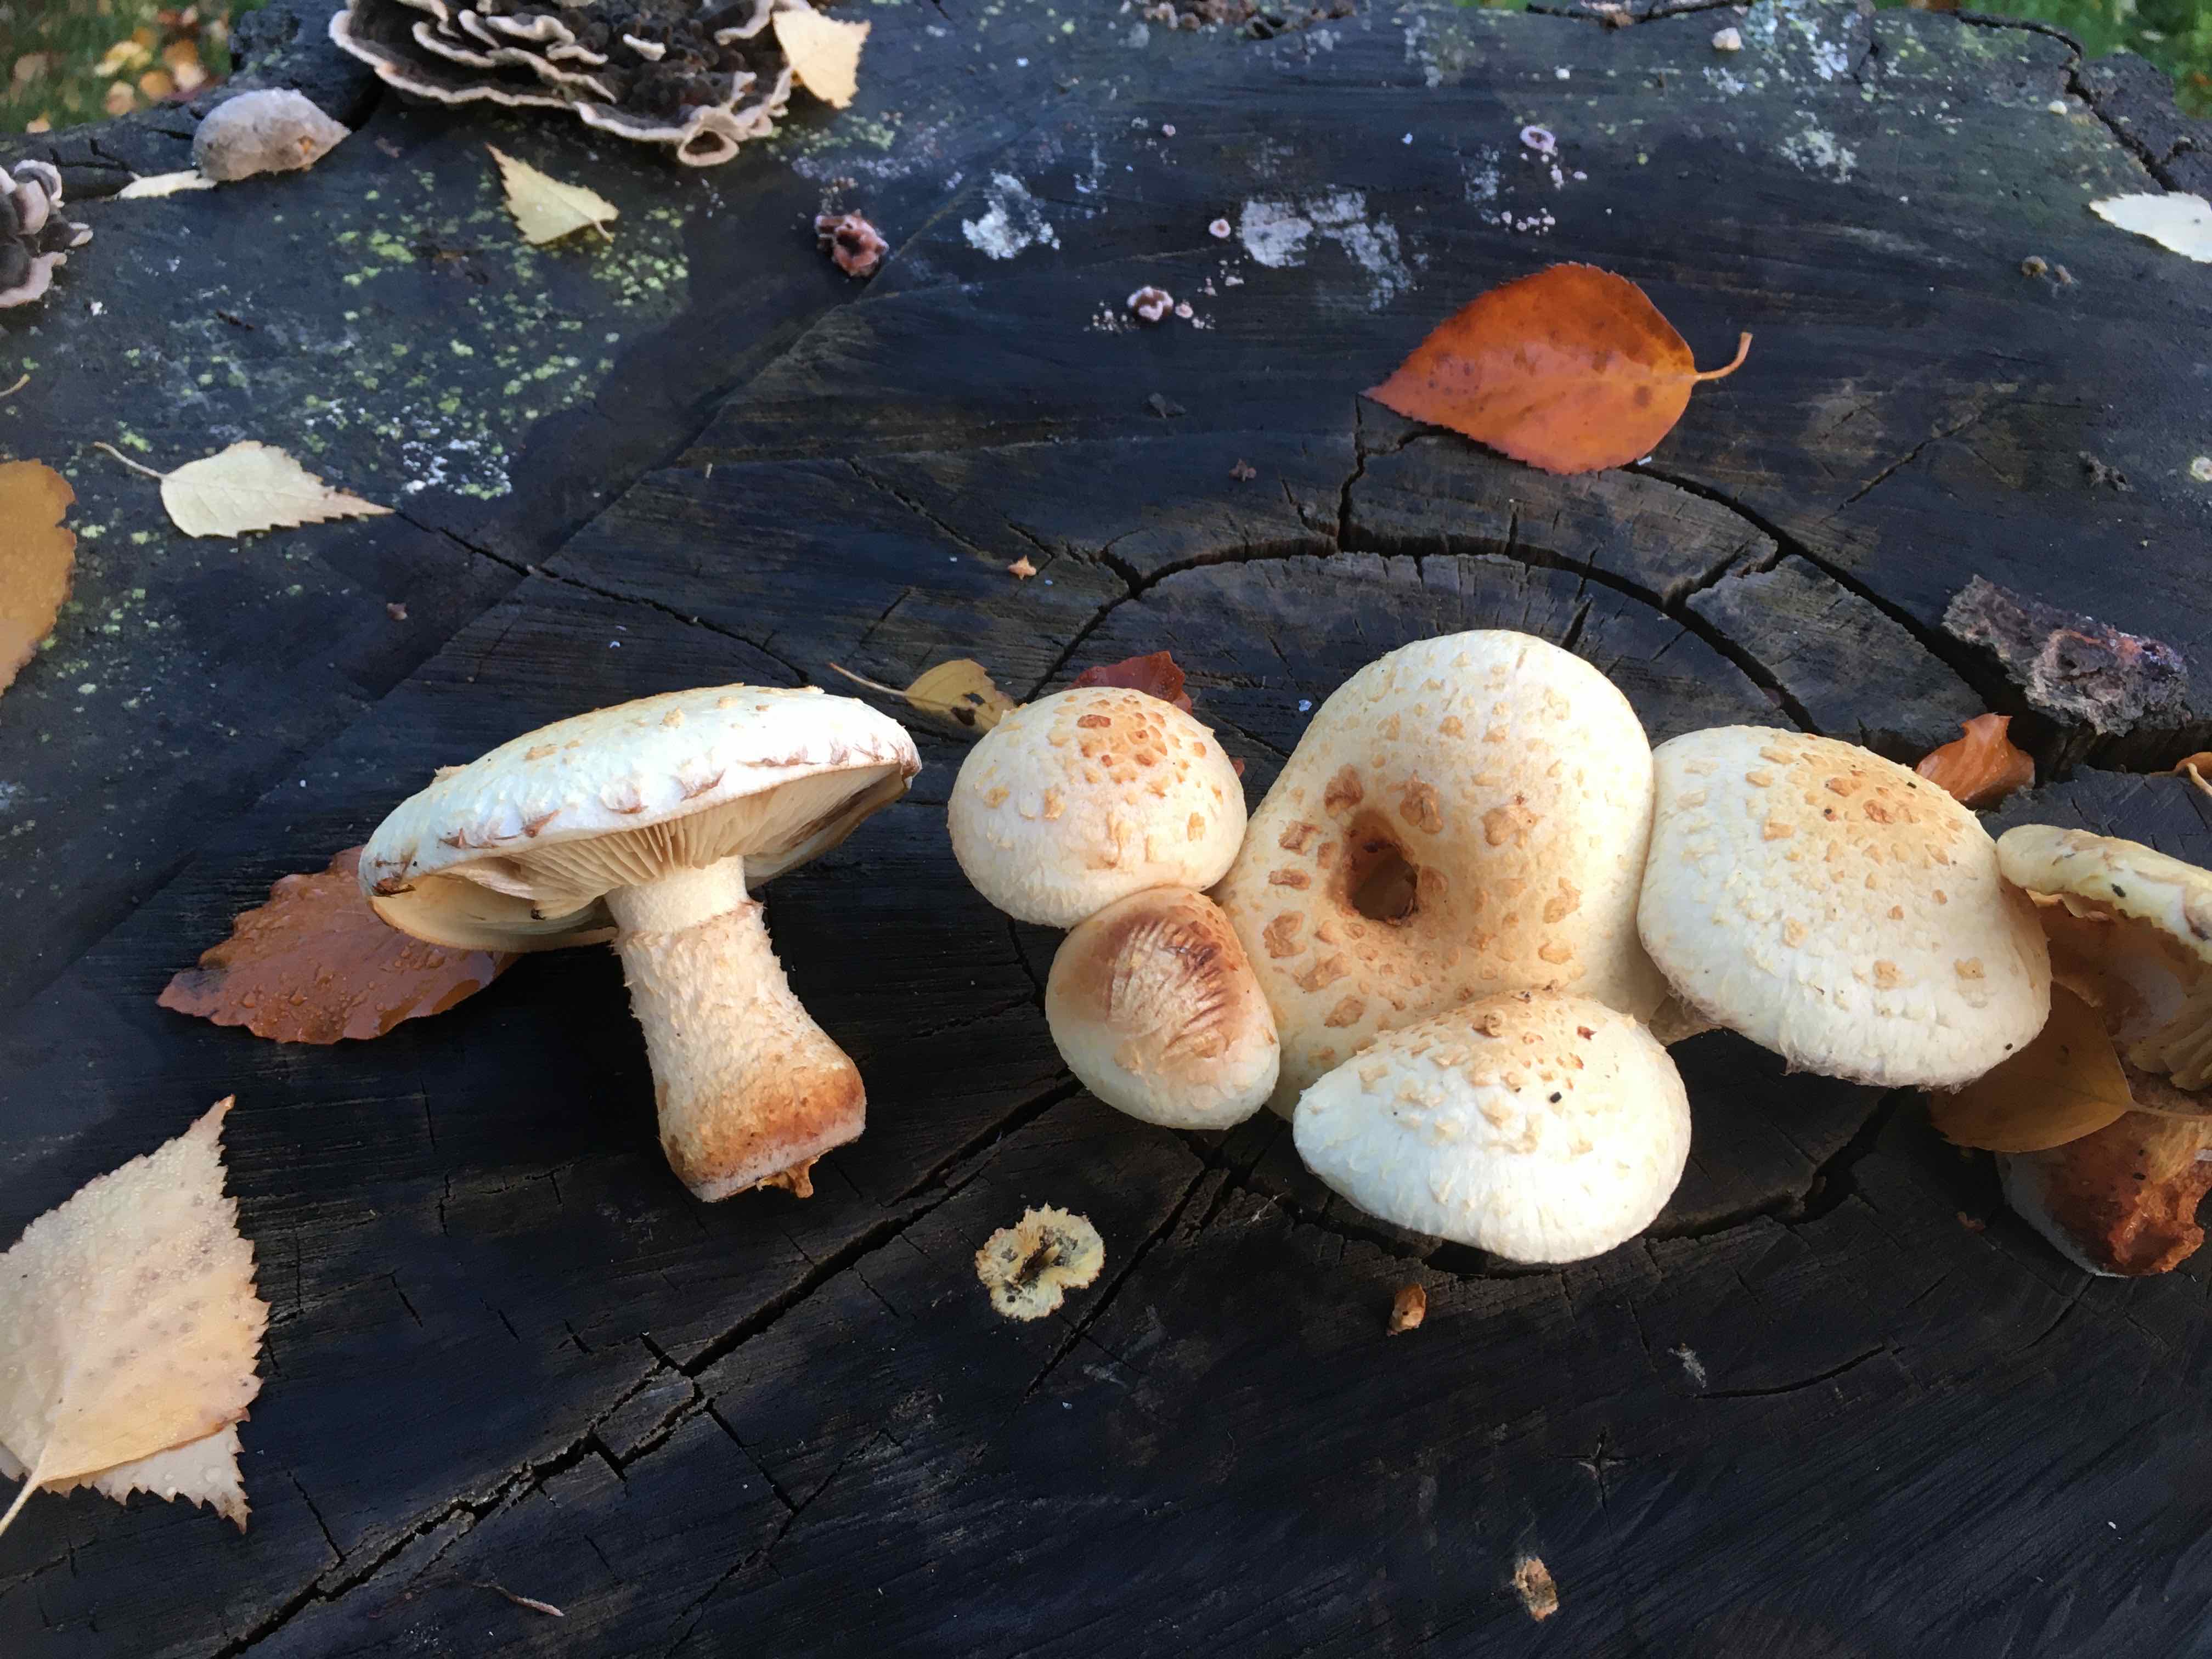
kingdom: Fungi
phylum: Basidiomycota
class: Agaricomycetes
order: Agaricales
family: Strophariaceae
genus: Pholiota
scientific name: Pholiota heteroclita
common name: duftende kæmpeskælhat
